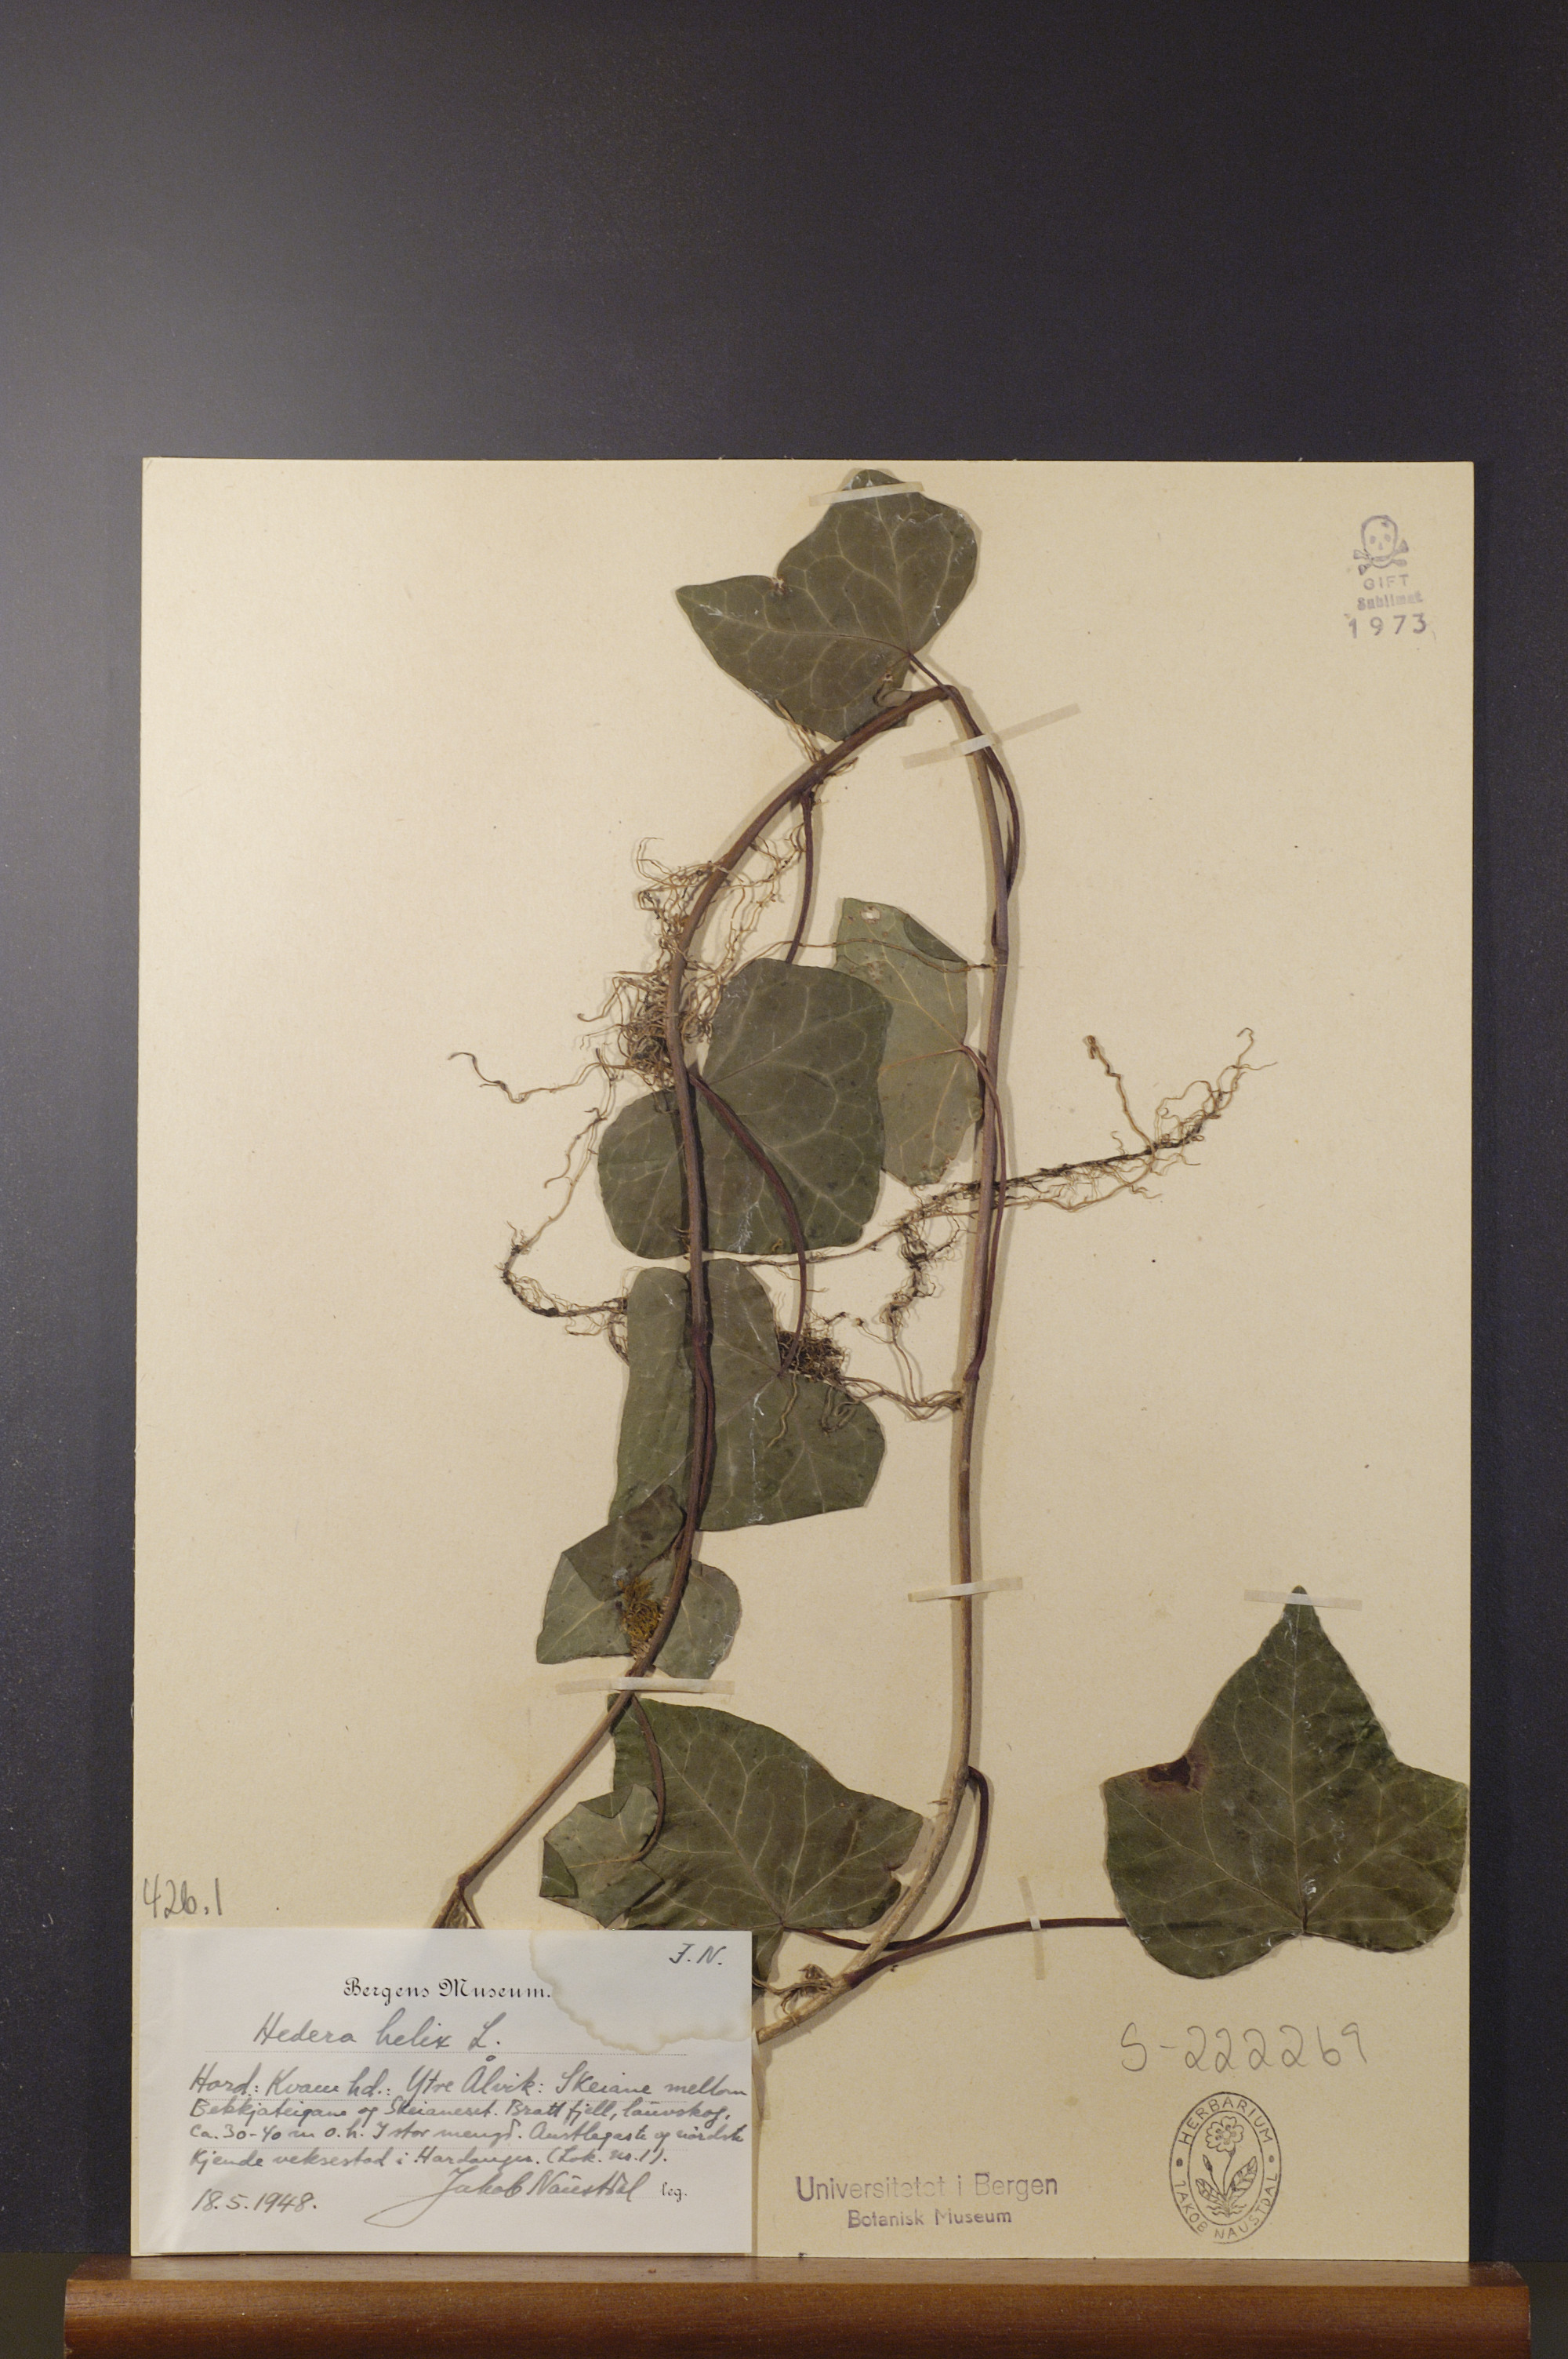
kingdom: Plantae
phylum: Tracheophyta
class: Magnoliopsida
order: Apiales
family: Araliaceae
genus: Hedera
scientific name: Hedera helix
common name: Ivy
